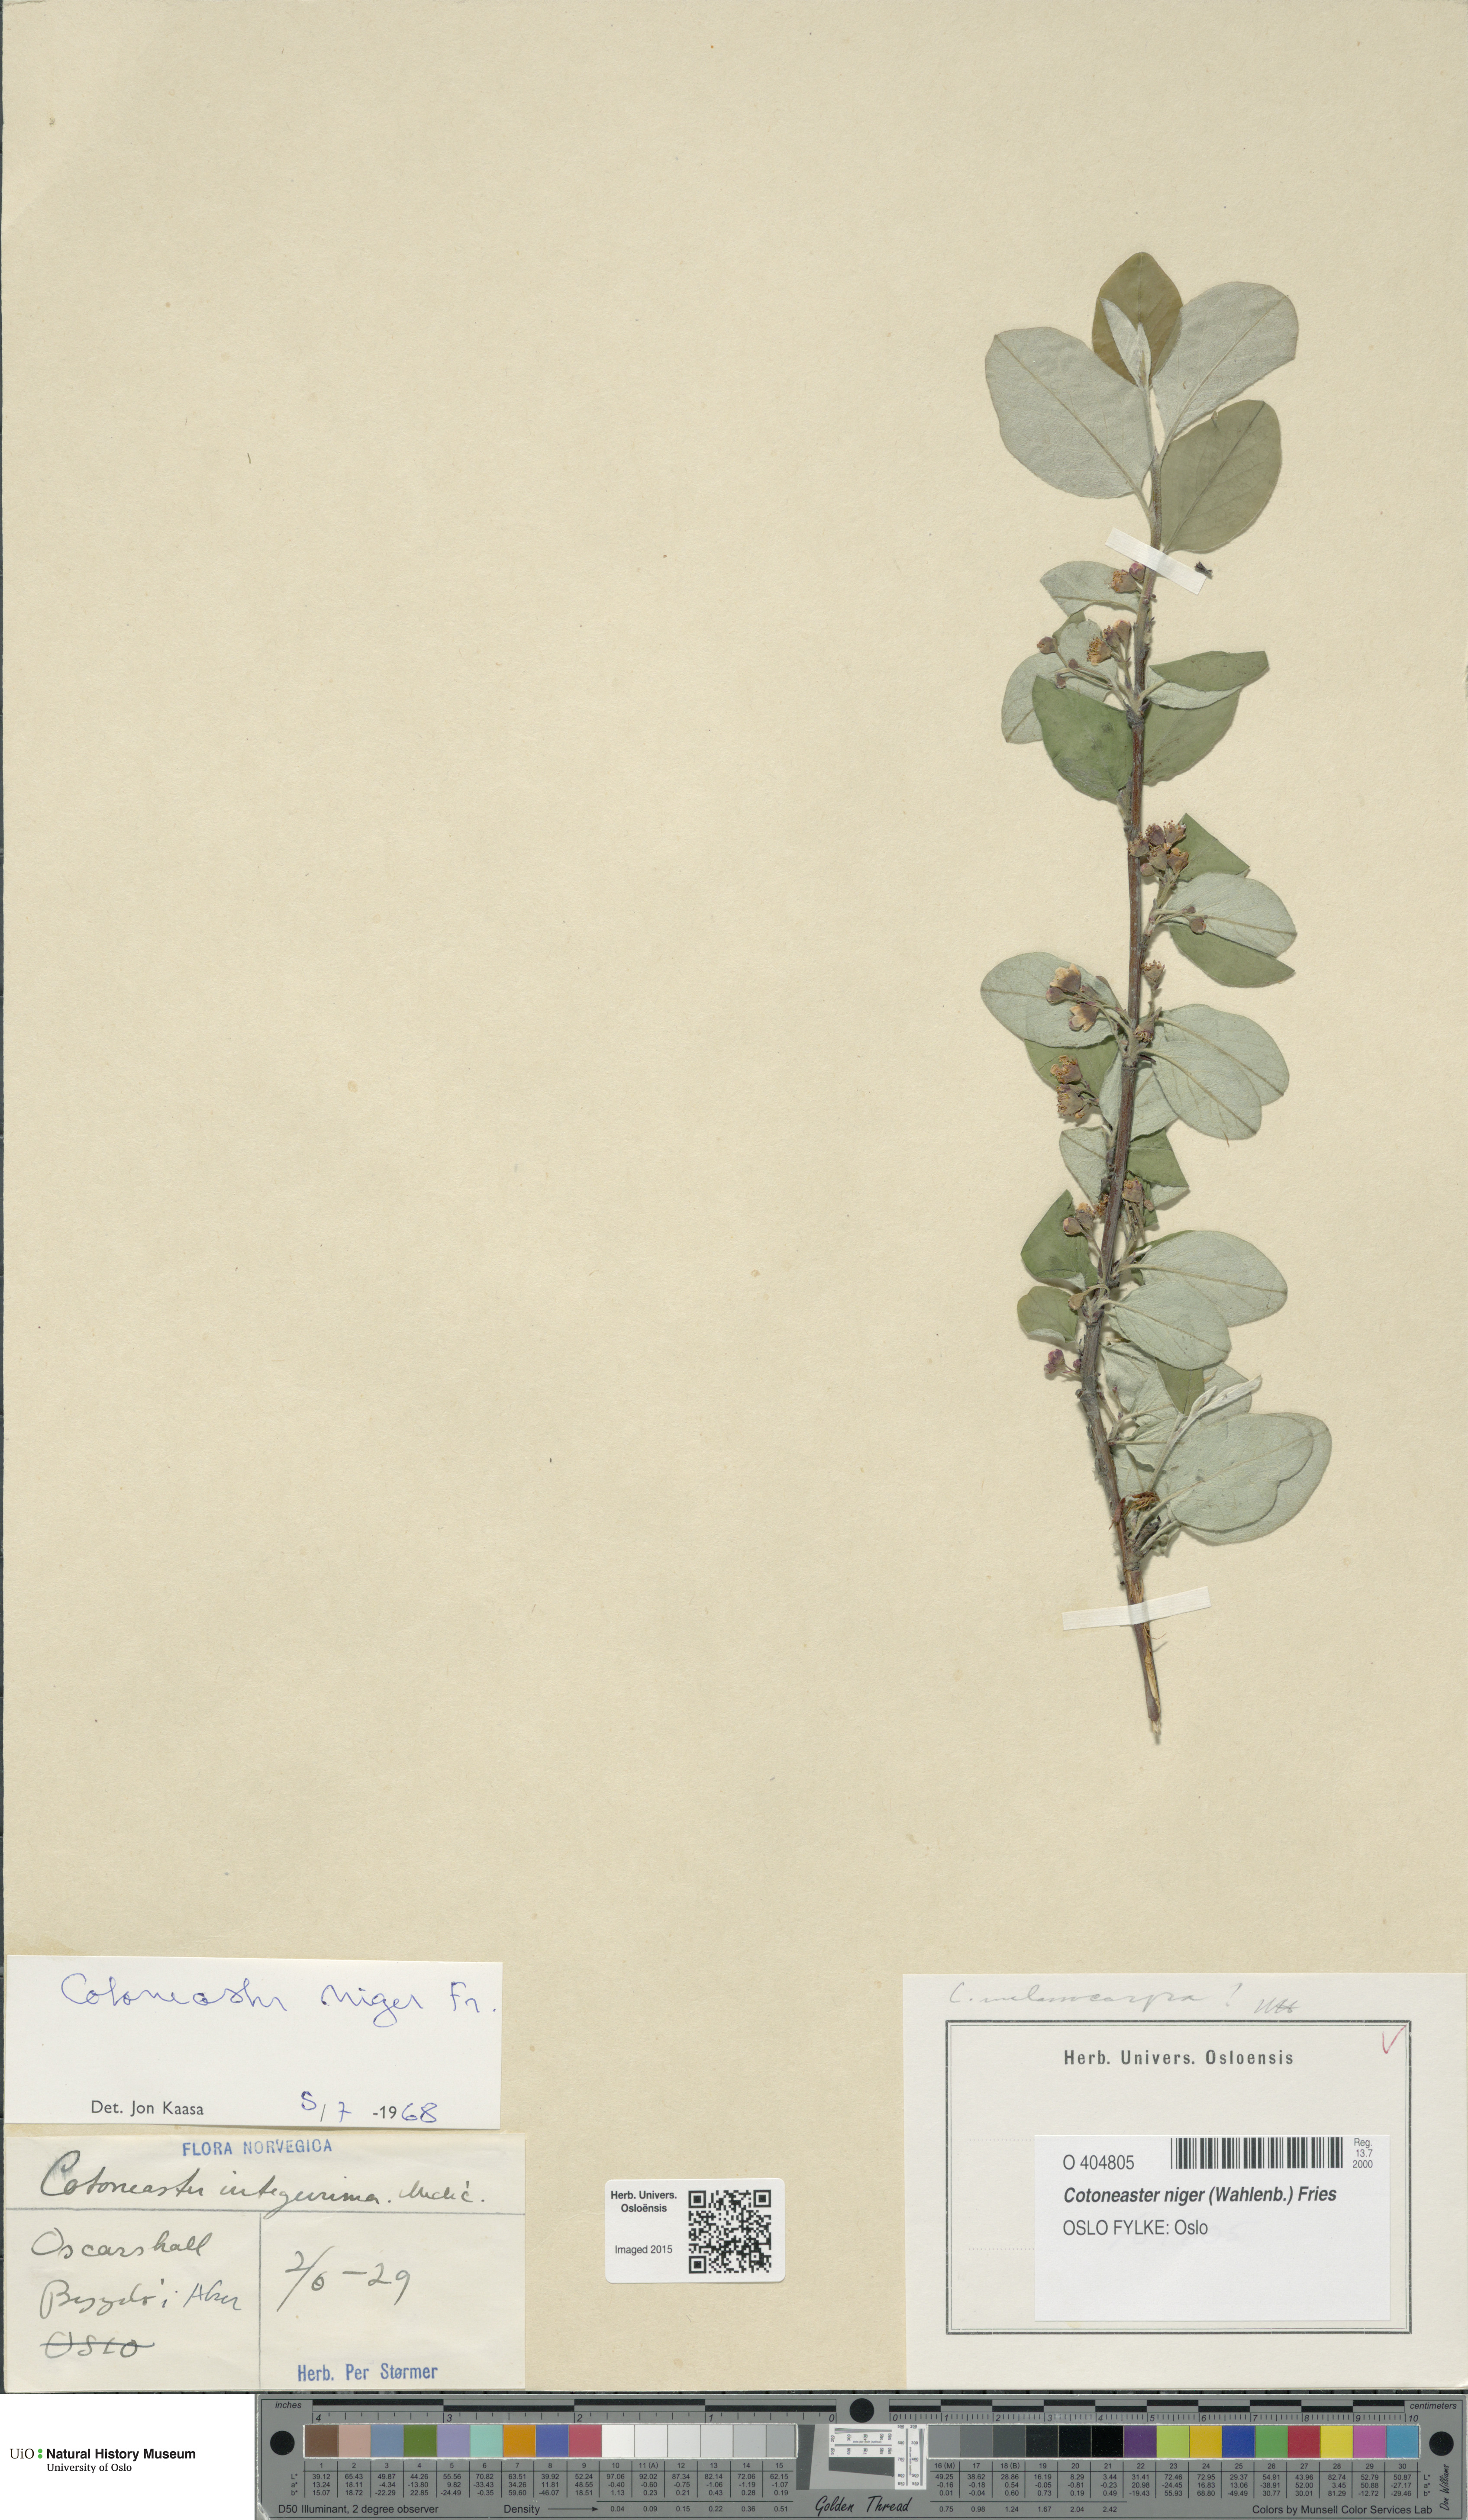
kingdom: Plantae
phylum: Tracheophyta
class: Magnoliopsida
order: Rosales
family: Rosaceae
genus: Cotoneaster
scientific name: Cotoneaster niger
